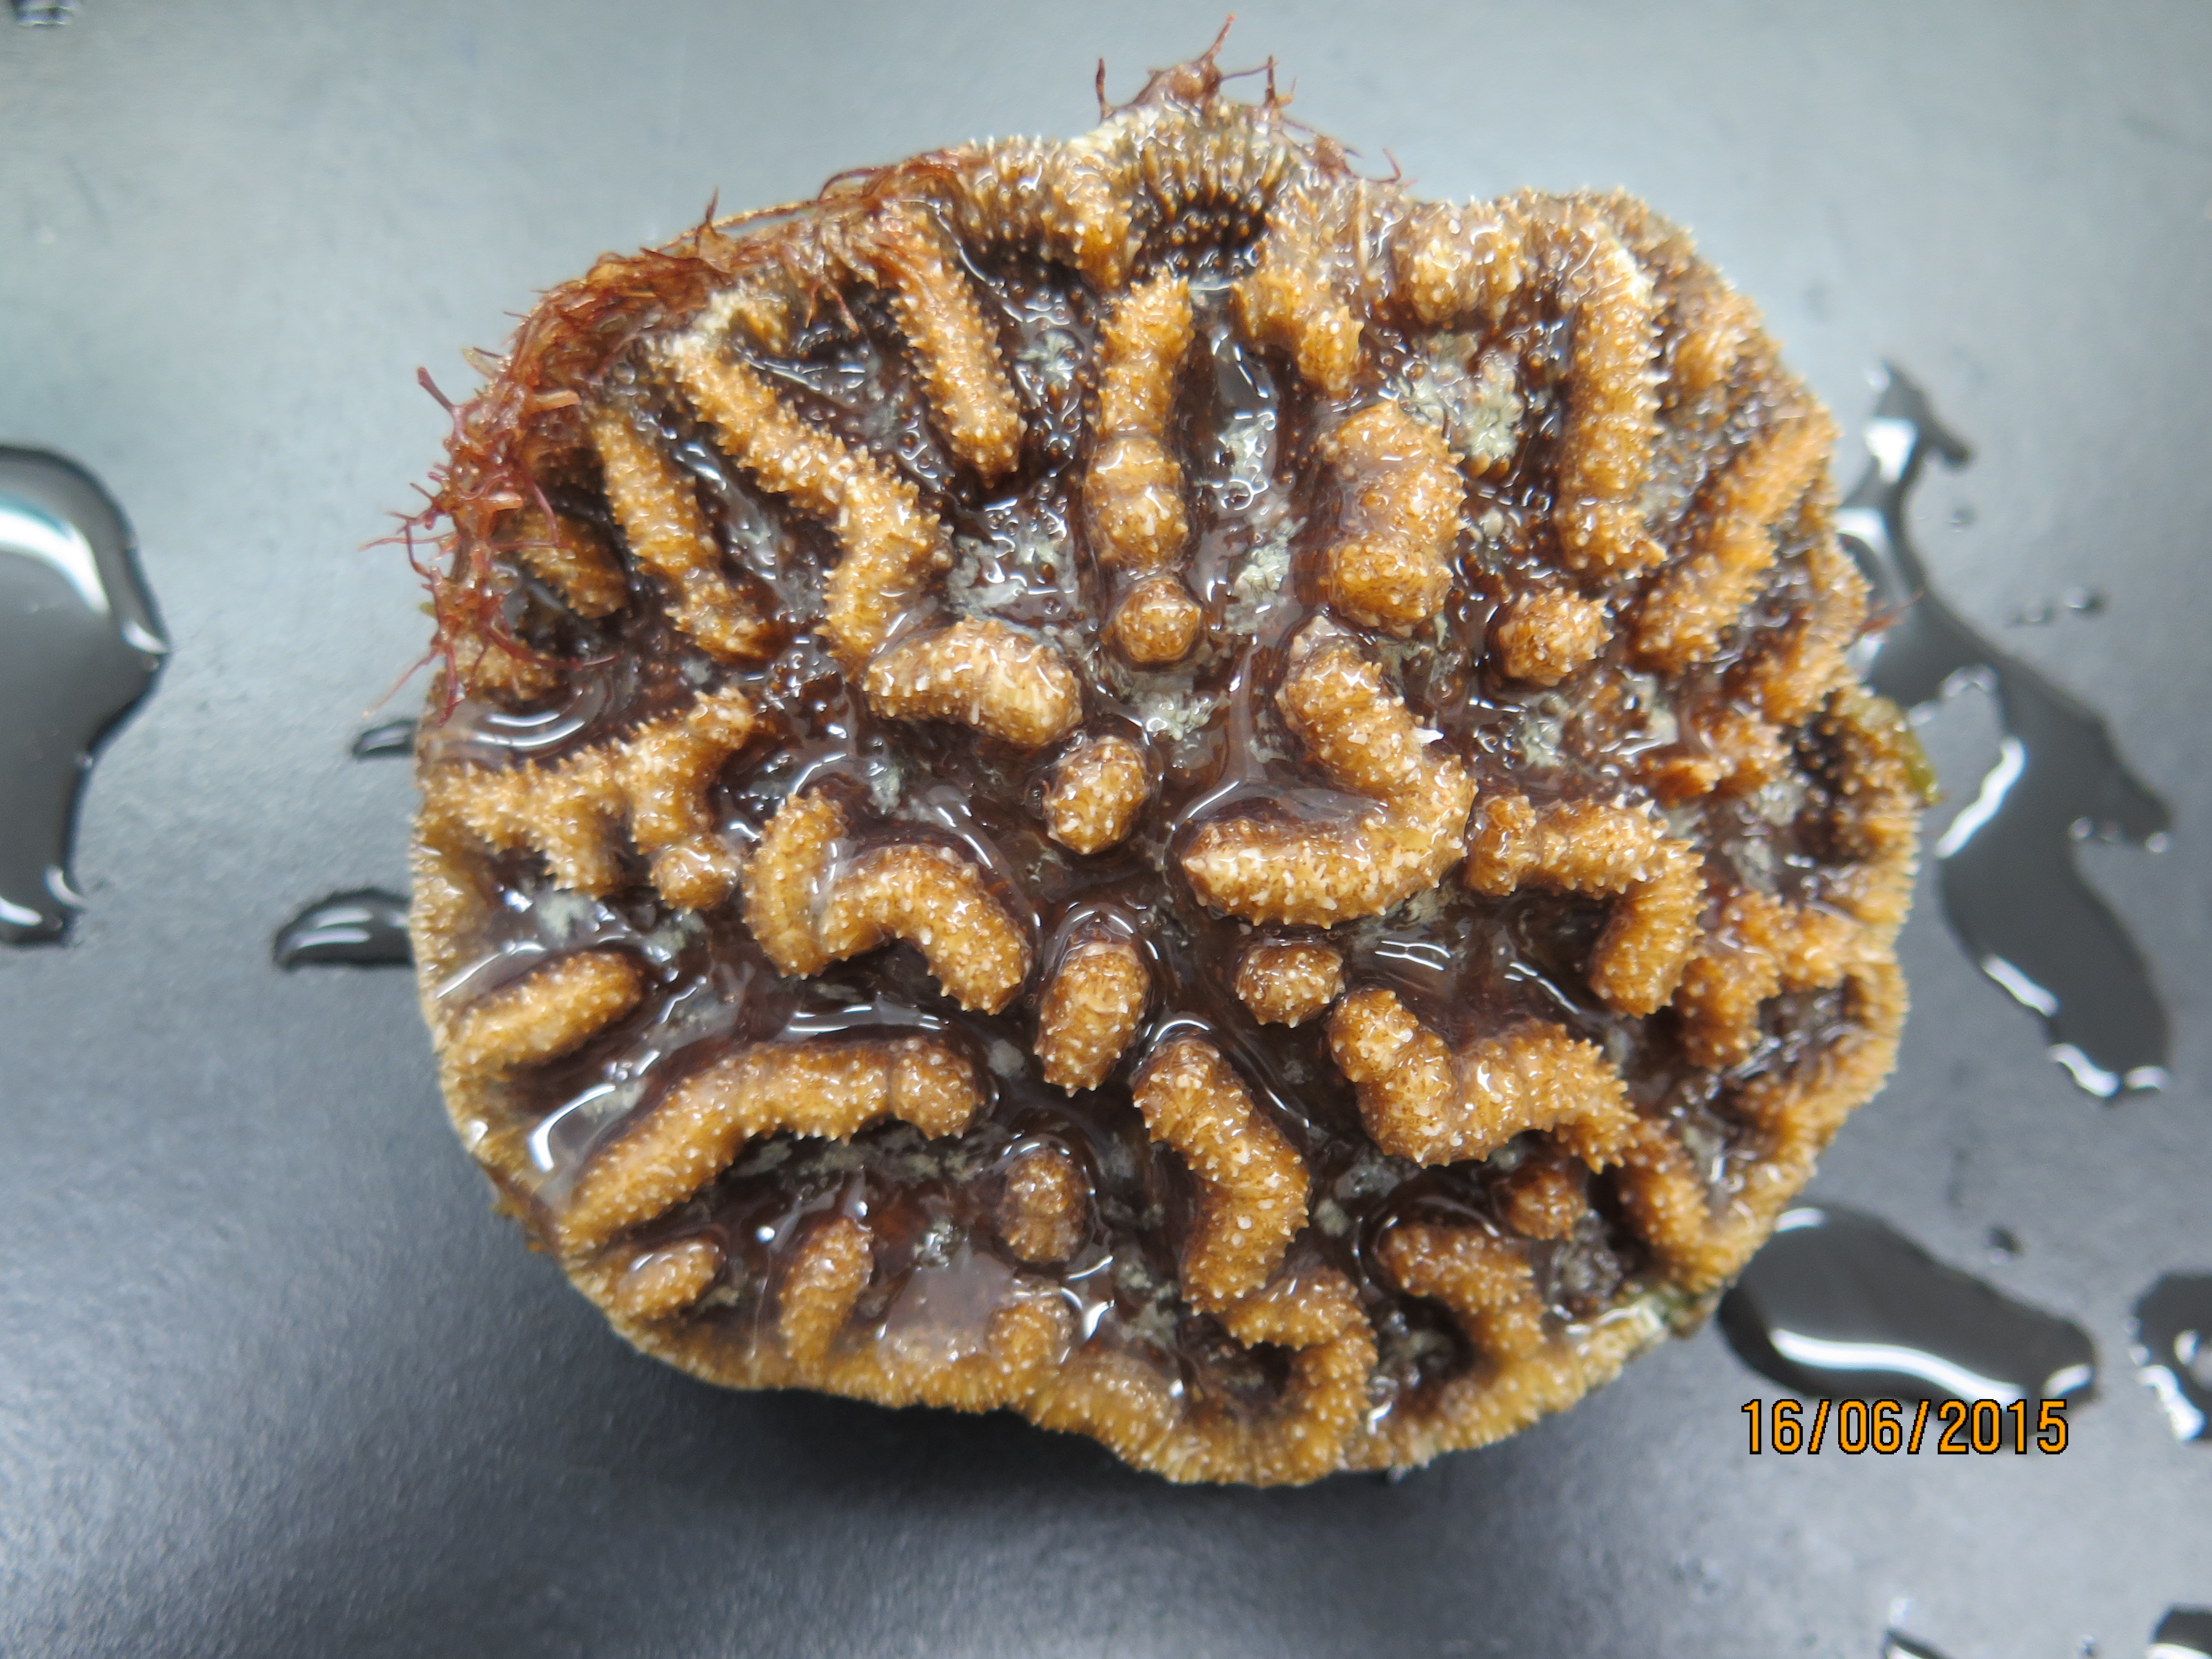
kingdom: Animalia
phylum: Cnidaria
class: Anthozoa
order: Scleractinia
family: Faviidae
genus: Mycetophyllia
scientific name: Mycetophyllia aliciae
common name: Knobby cactus coral
